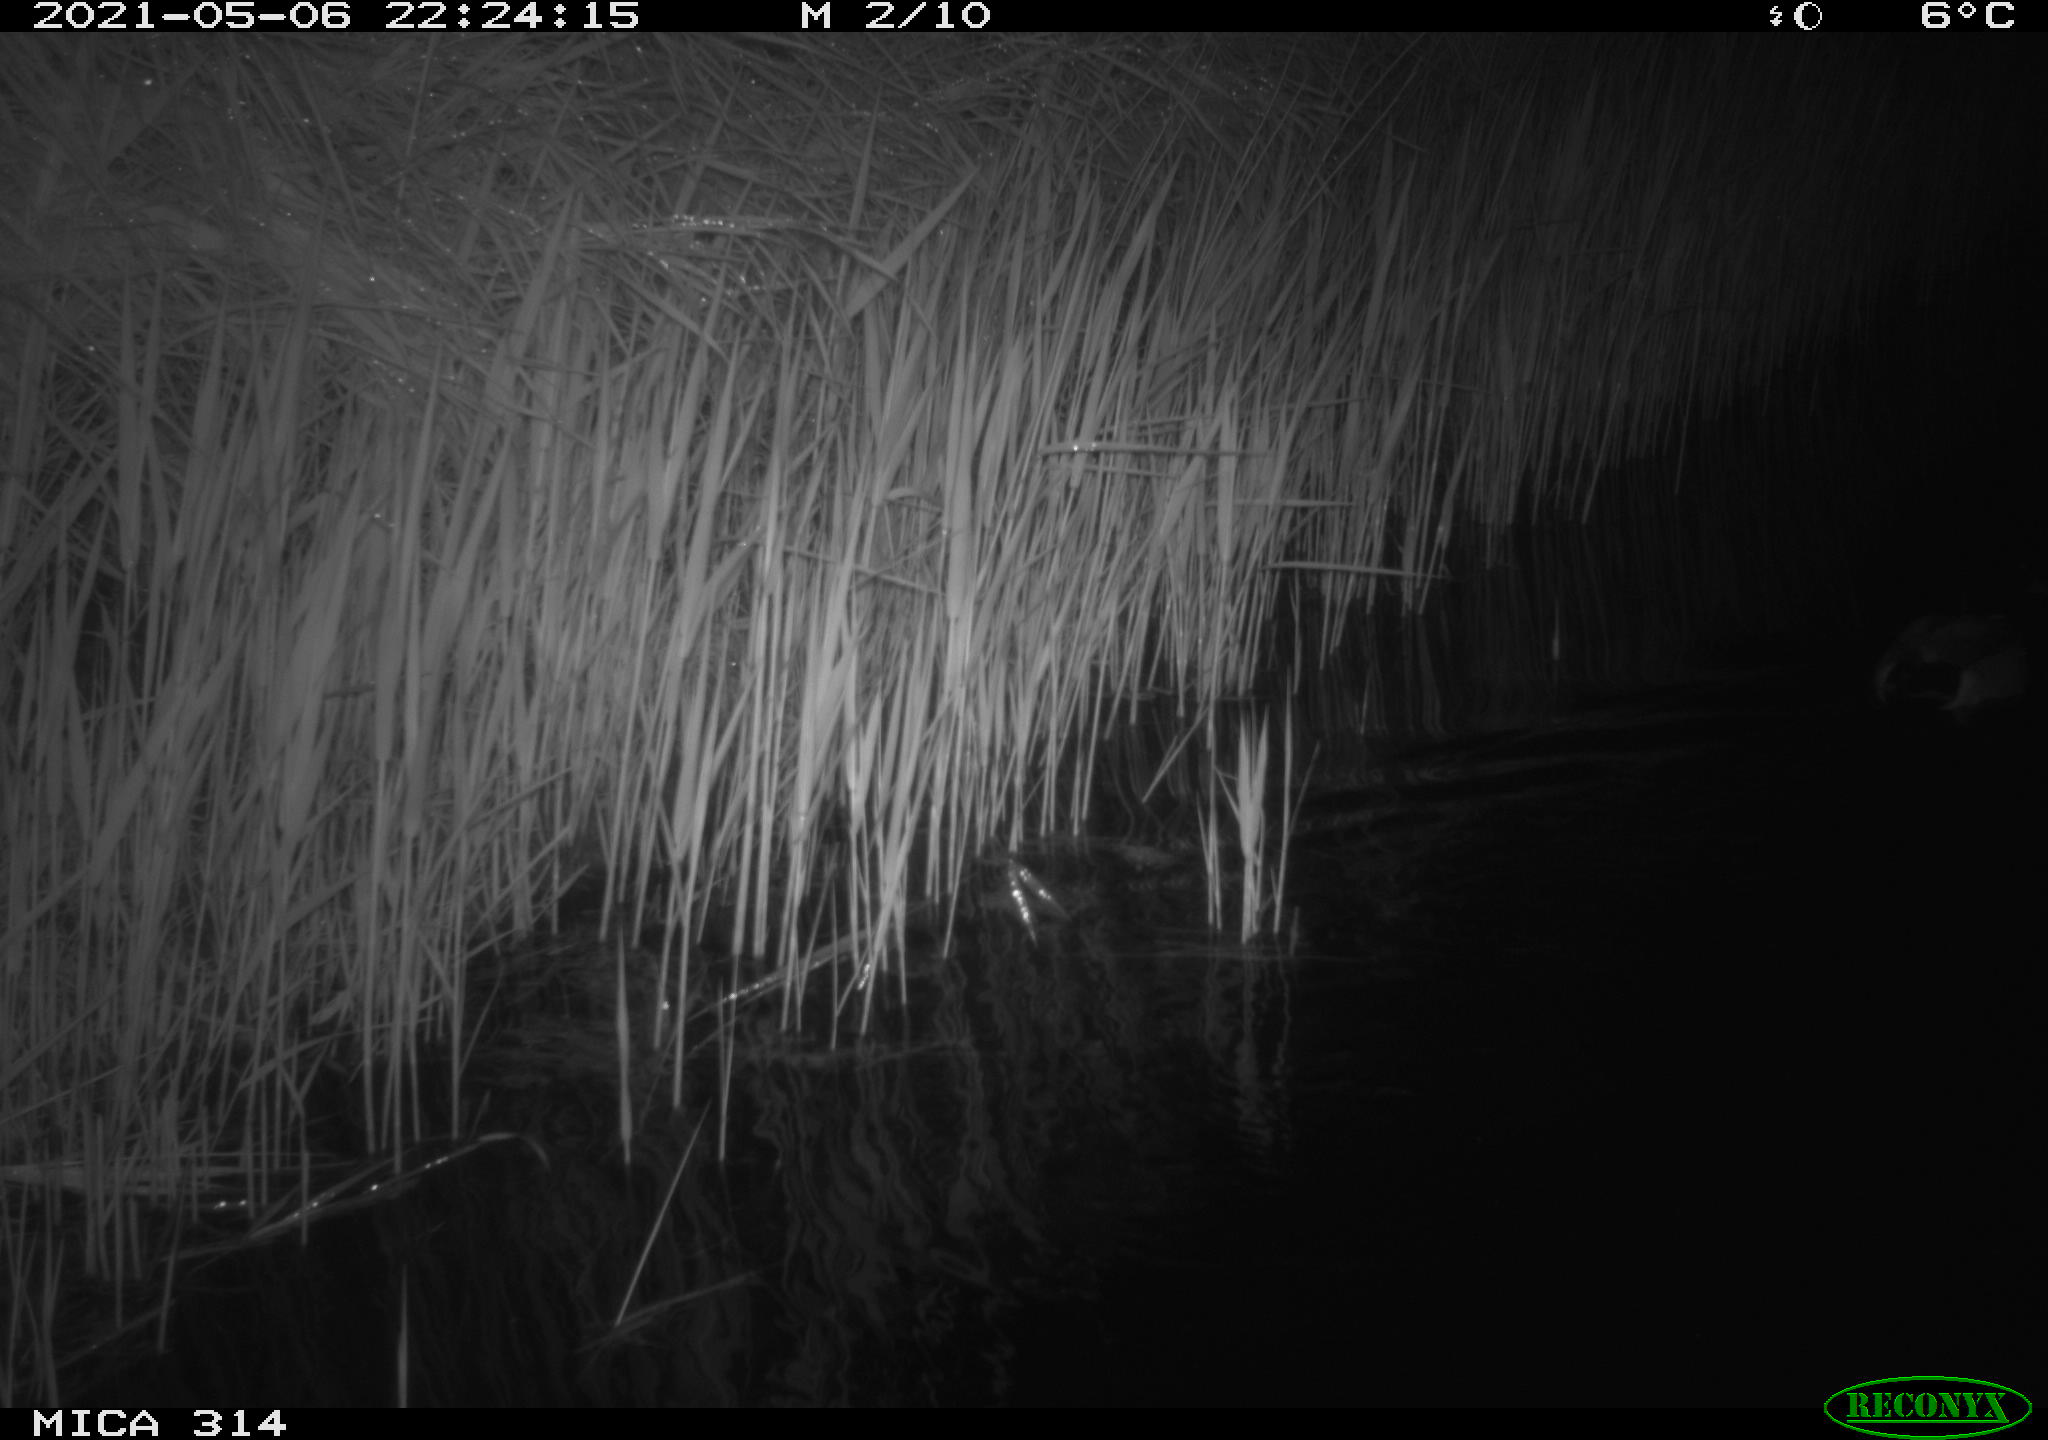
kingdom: Animalia
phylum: Chordata
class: Aves
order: Anseriformes
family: Anatidae
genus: Anas
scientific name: Anas platyrhynchos
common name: Mallard
